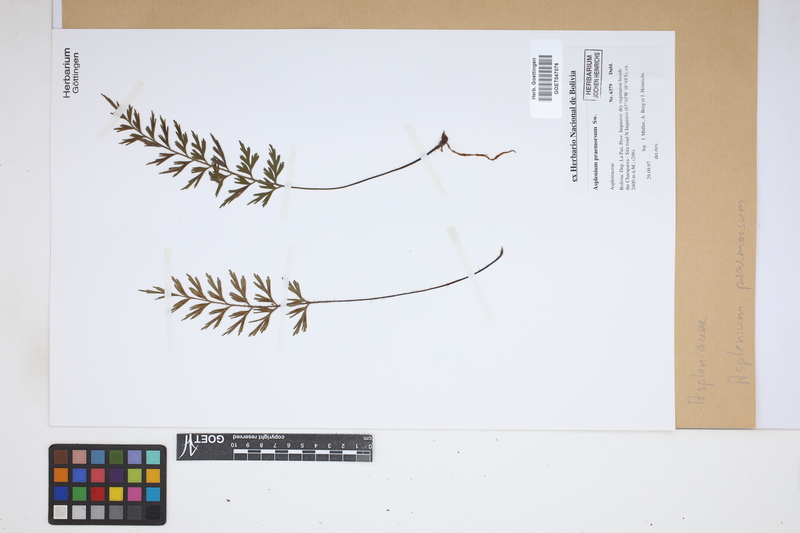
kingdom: Plantae
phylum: Tracheophyta
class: Polypodiopsida
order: Polypodiales
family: Aspleniaceae
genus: Asplenium
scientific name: Asplenium praemorsum
